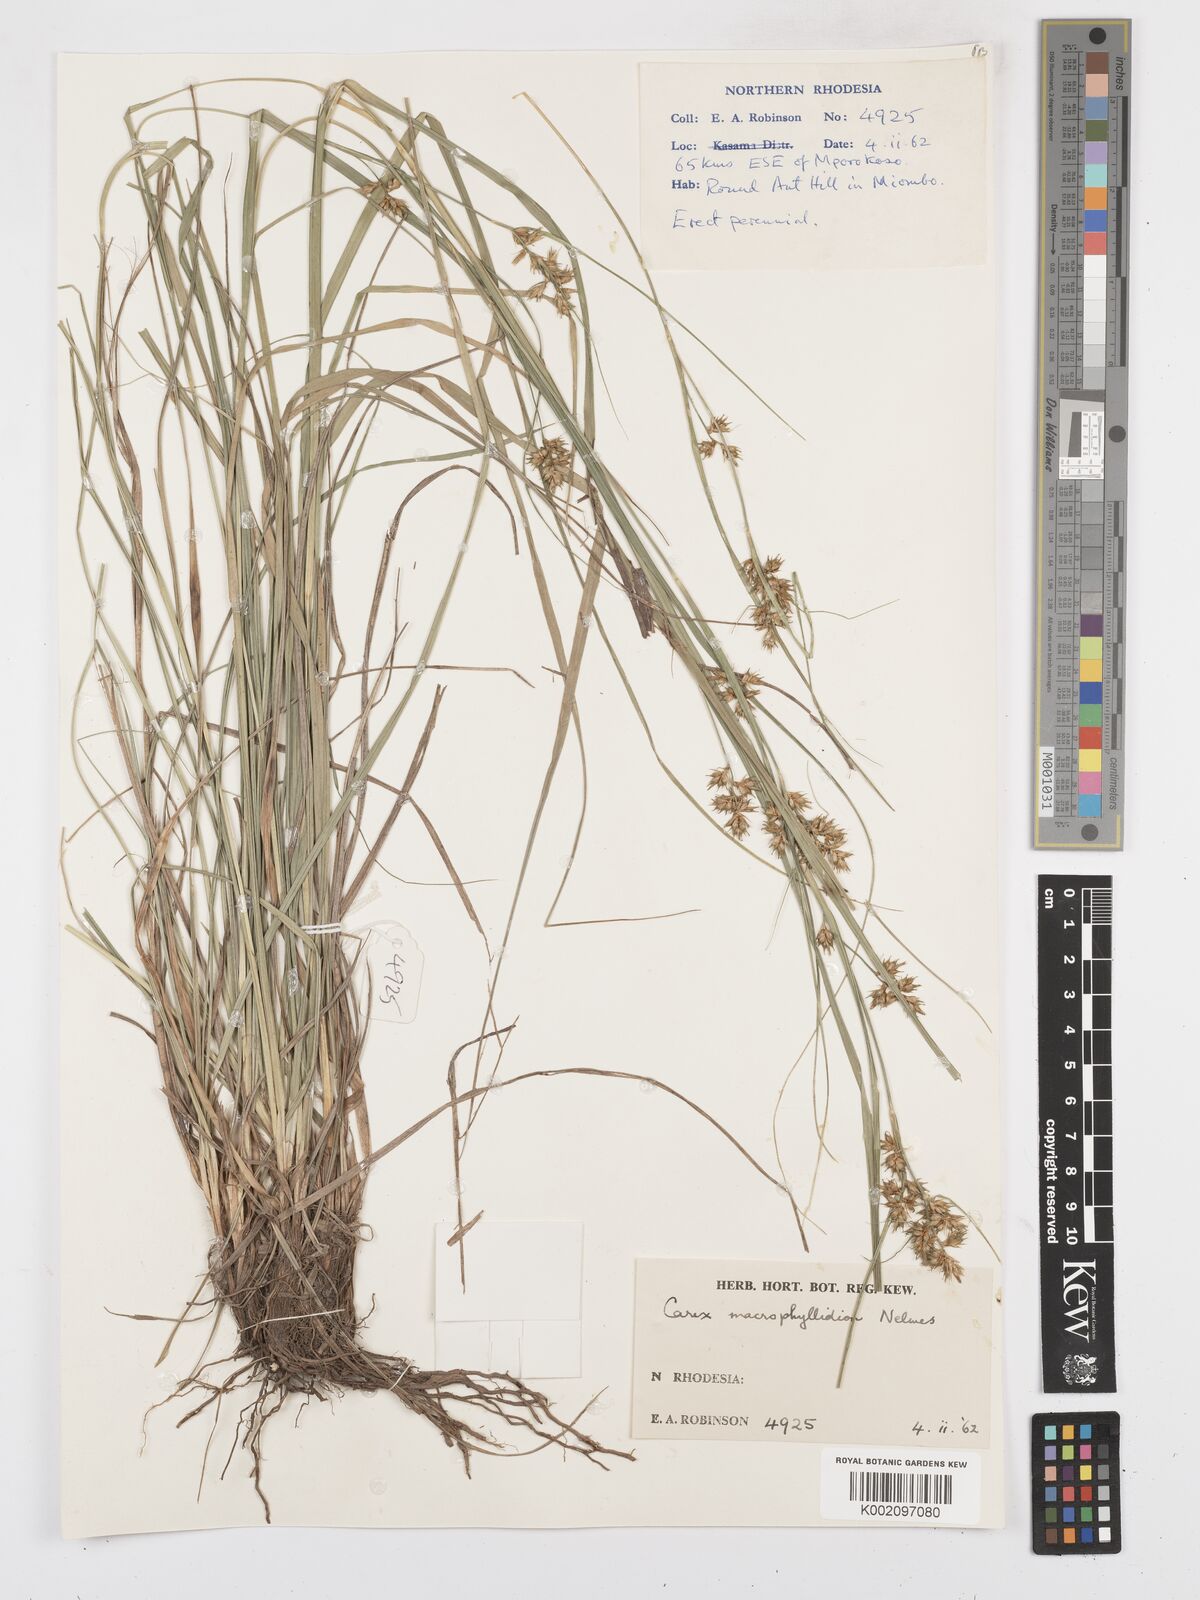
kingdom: Plantae
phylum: Tracheophyta
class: Liliopsida
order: Poales
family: Cyperaceae
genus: Carex
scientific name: Carex macrophyllidion
